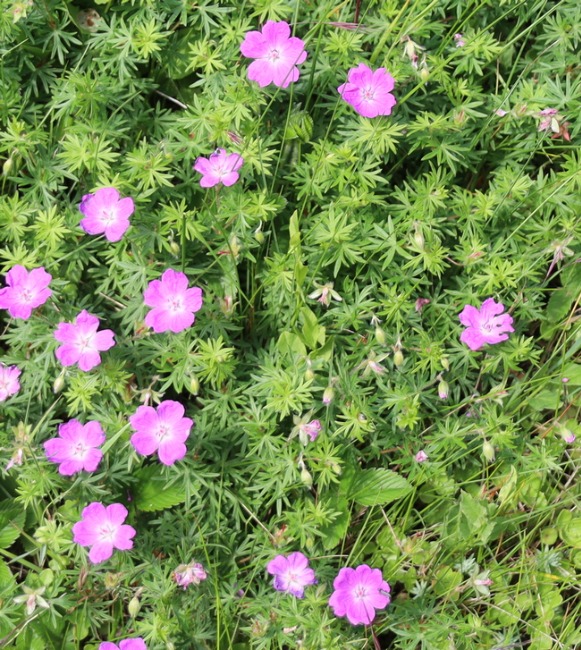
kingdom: Plantae
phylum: Tracheophyta
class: Magnoliopsida
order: Geraniales
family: Geraniaceae
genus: Geranium
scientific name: Geranium sanguineum
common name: Blodrød storkenæb
